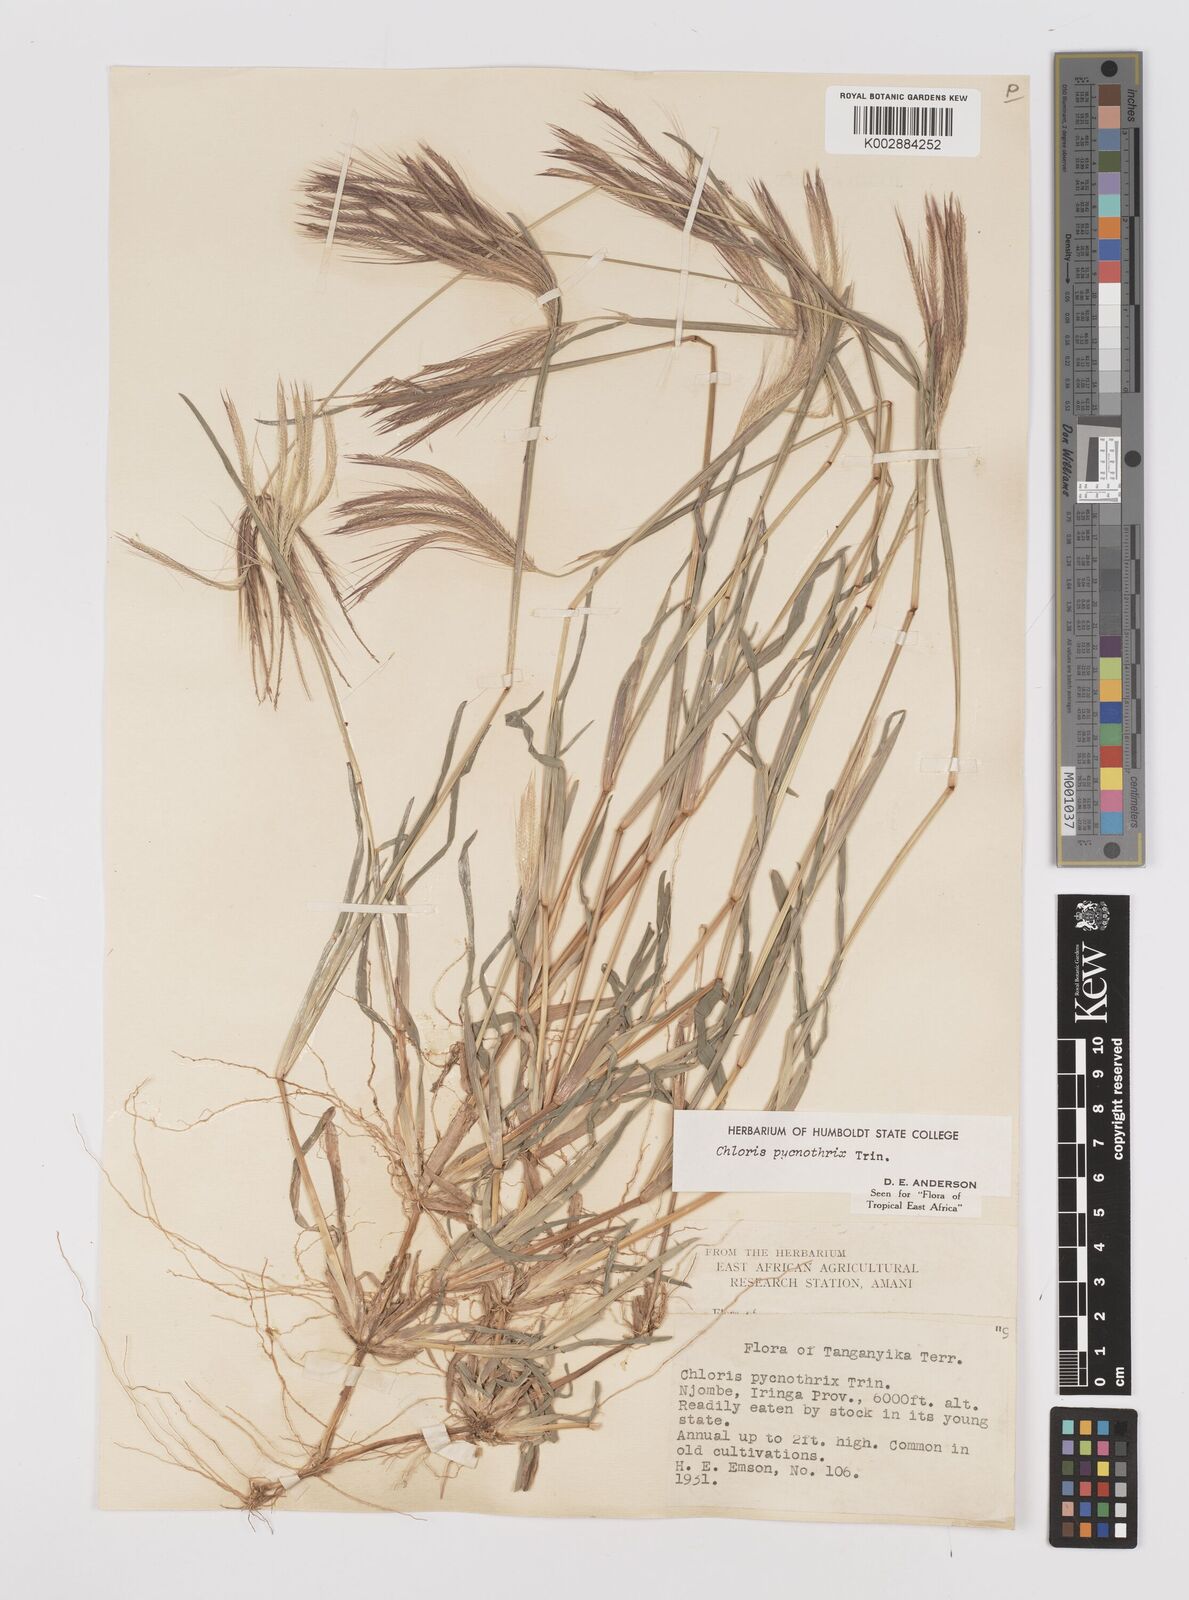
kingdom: Plantae
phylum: Tracheophyta
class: Liliopsida
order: Poales
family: Poaceae
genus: Chloris
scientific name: Chloris pycnothrix
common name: Spiderweb chloris
